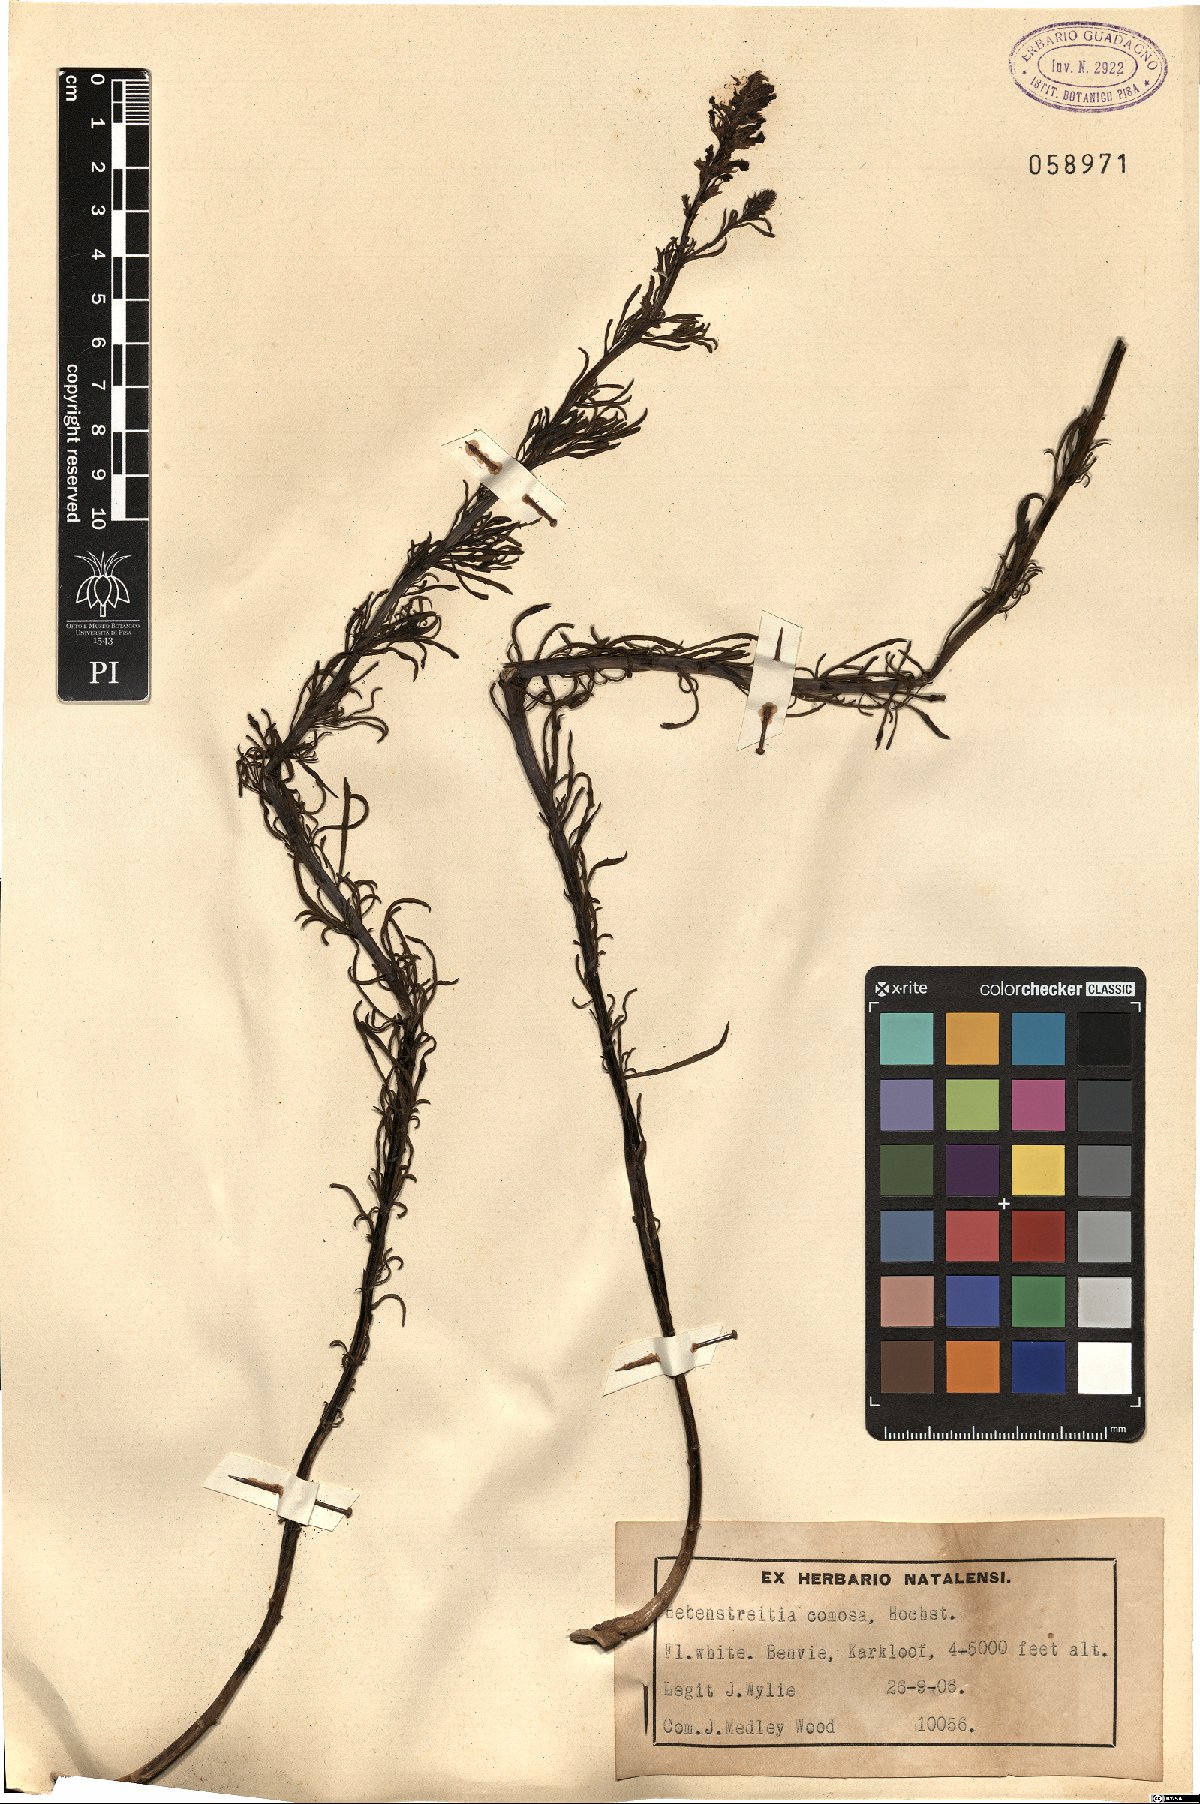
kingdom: Plantae
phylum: Tracheophyta
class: Magnoliopsida
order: Lamiales
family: Scrophulariaceae
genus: Hebenstretia
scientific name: Hebenstretia comosa
